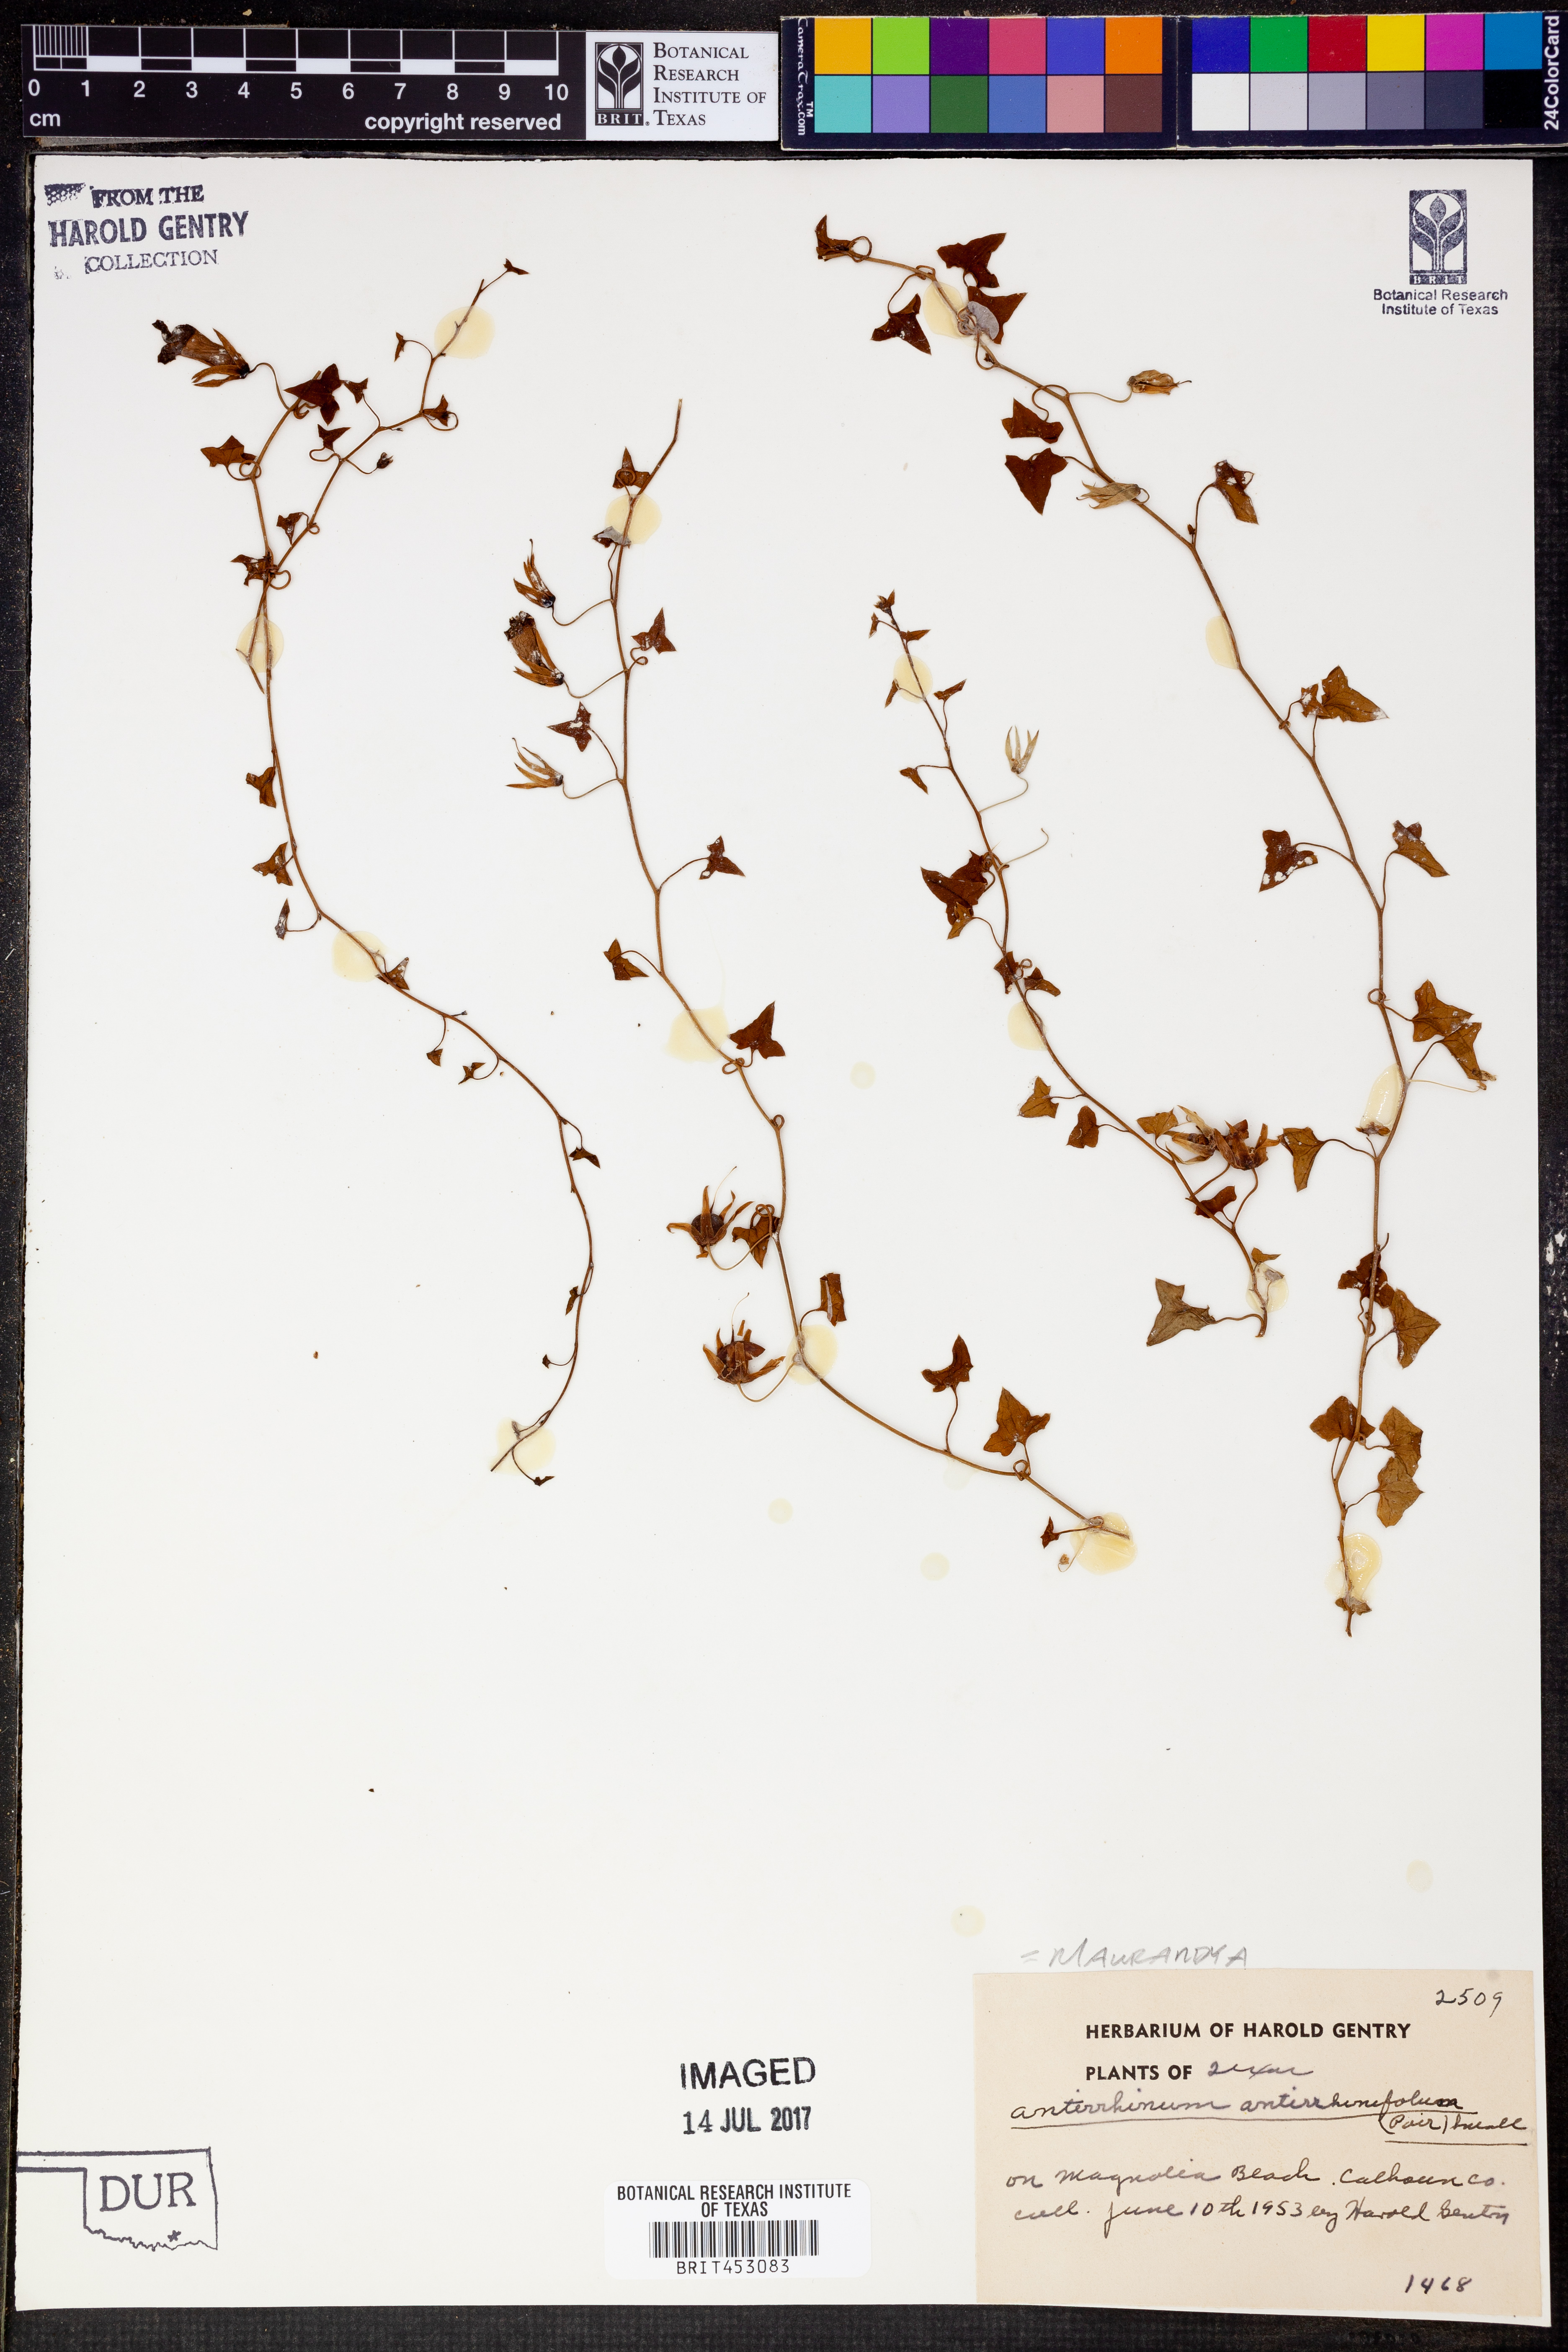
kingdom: Plantae
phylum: Tracheophyta
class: Magnoliopsida
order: Lamiales
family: Plantaginaceae
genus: Maurandella
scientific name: Maurandella antirrhiniflora
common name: Violet twining-snapdragon
